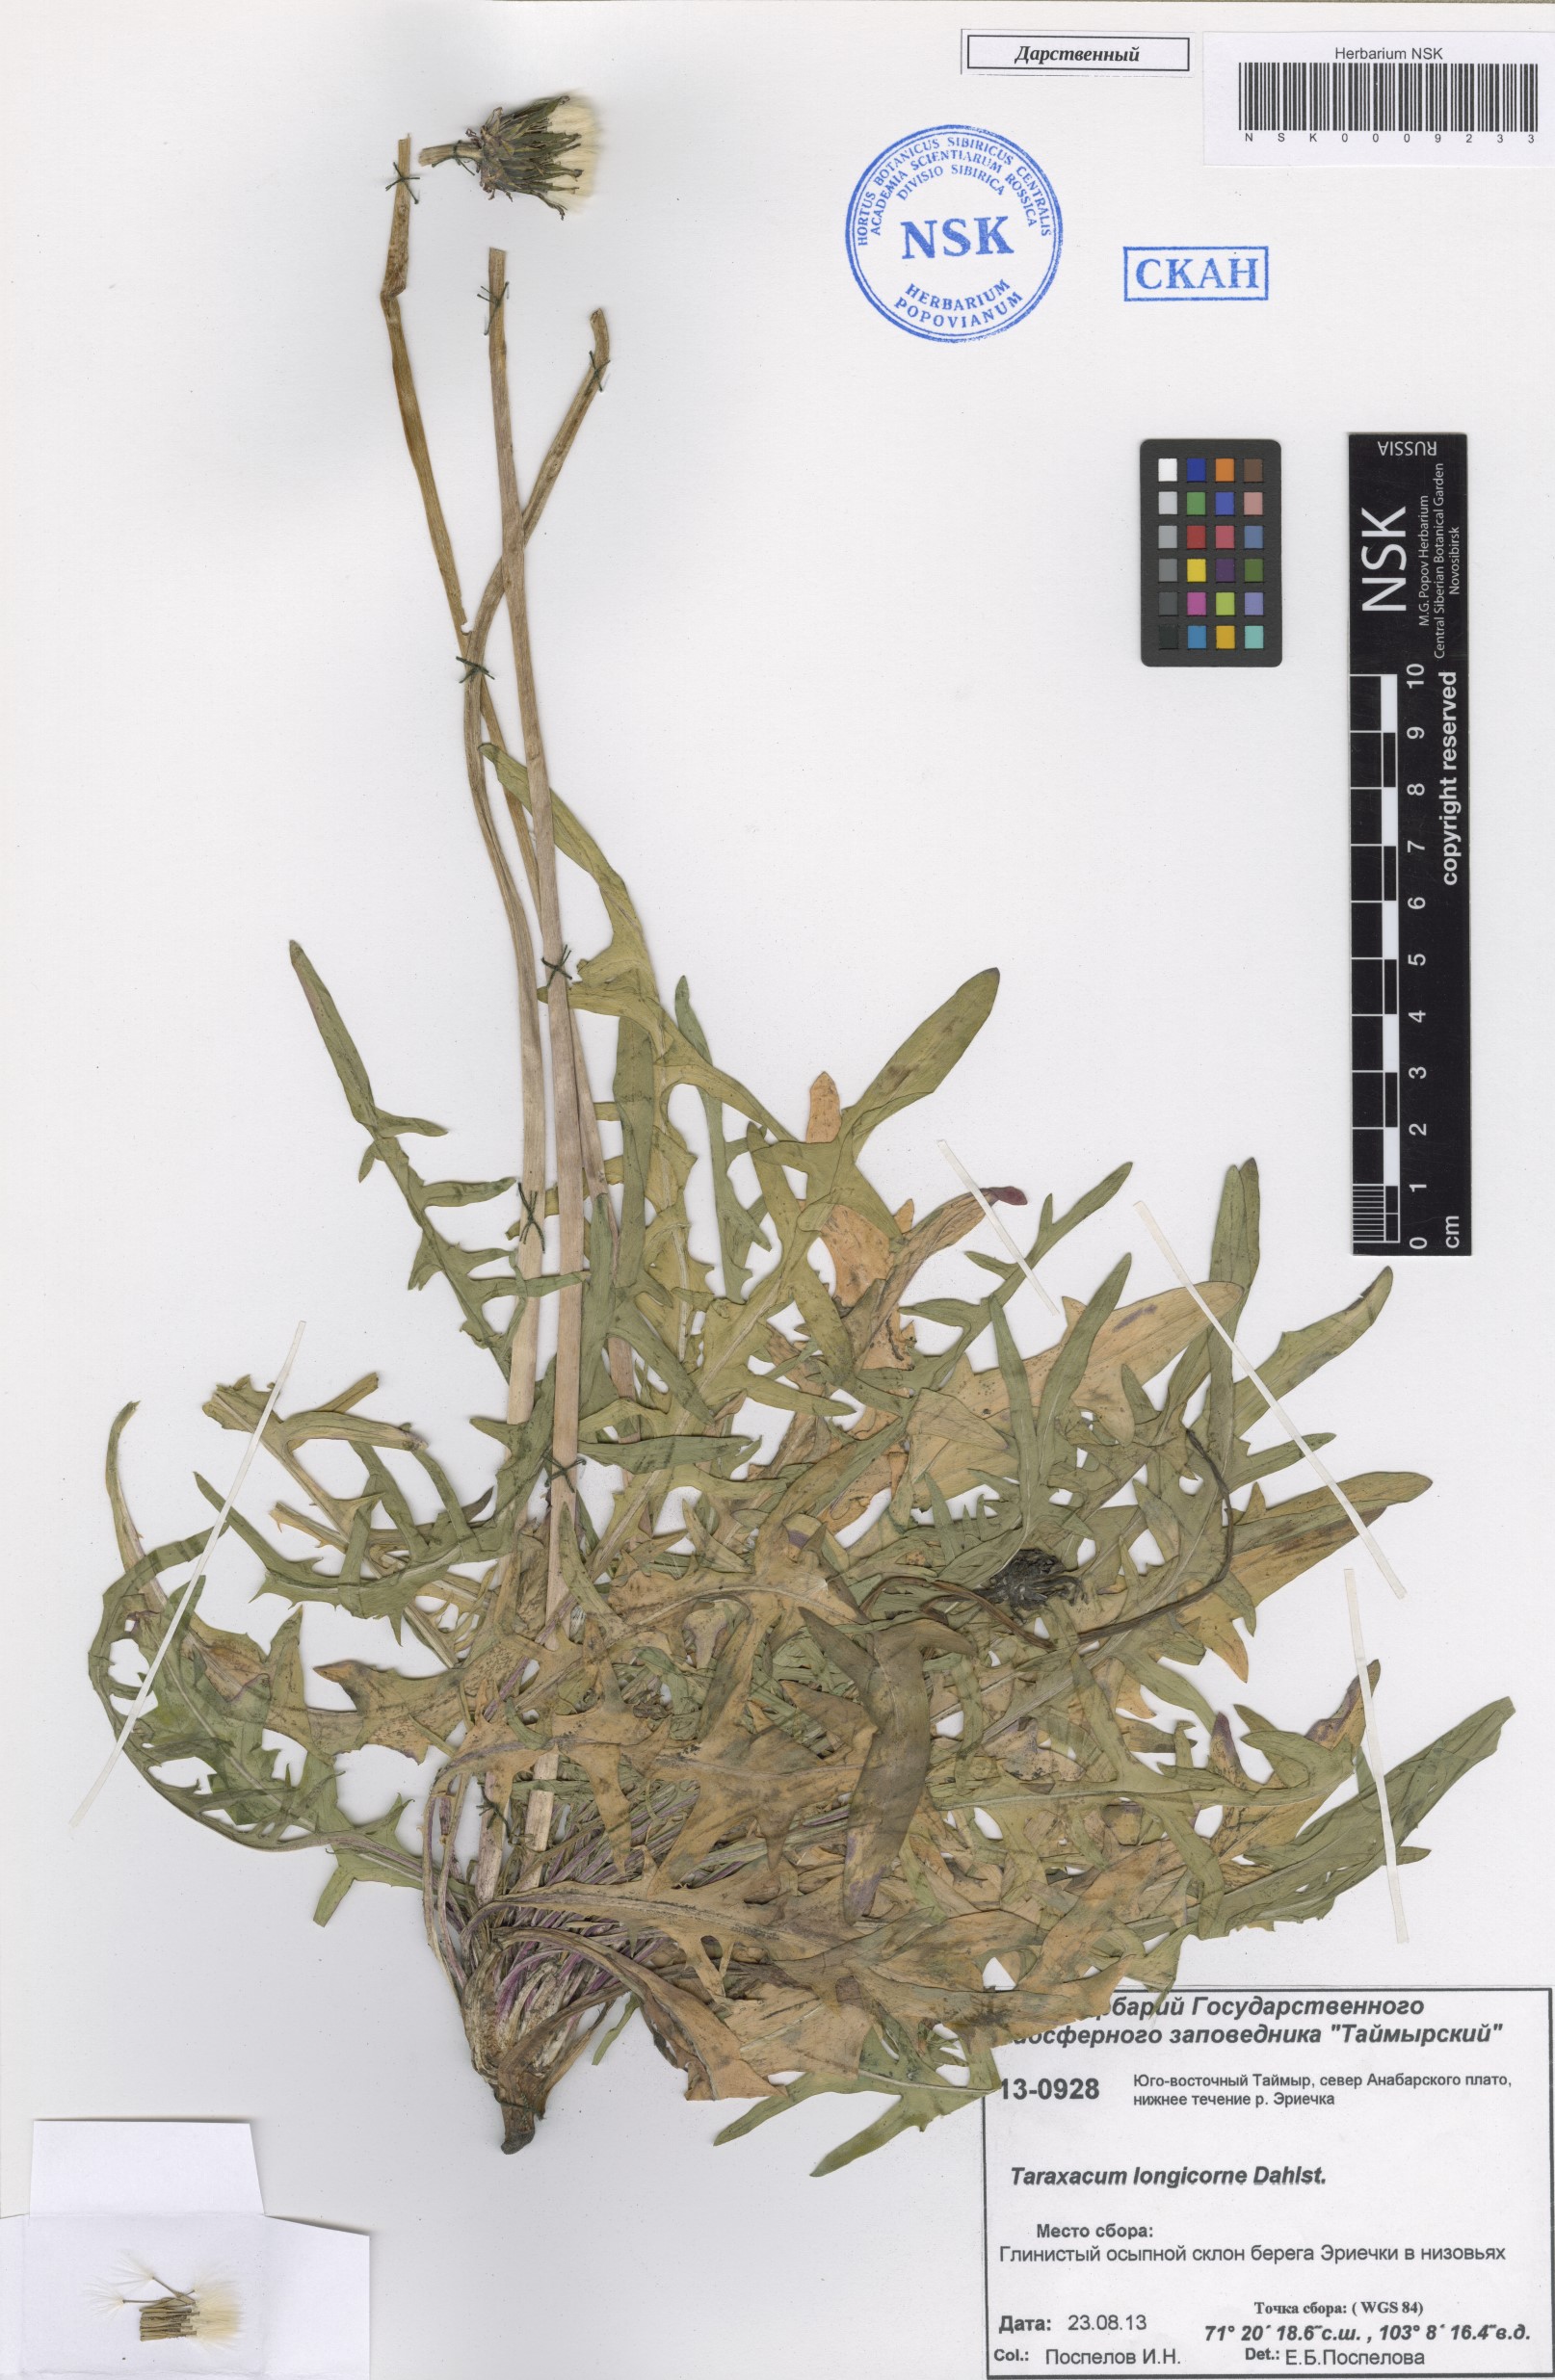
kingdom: Plantae
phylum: Tracheophyta
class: Magnoliopsida
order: Asterales
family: Asteraceae
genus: Taraxacum
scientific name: Taraxacum longicorne
